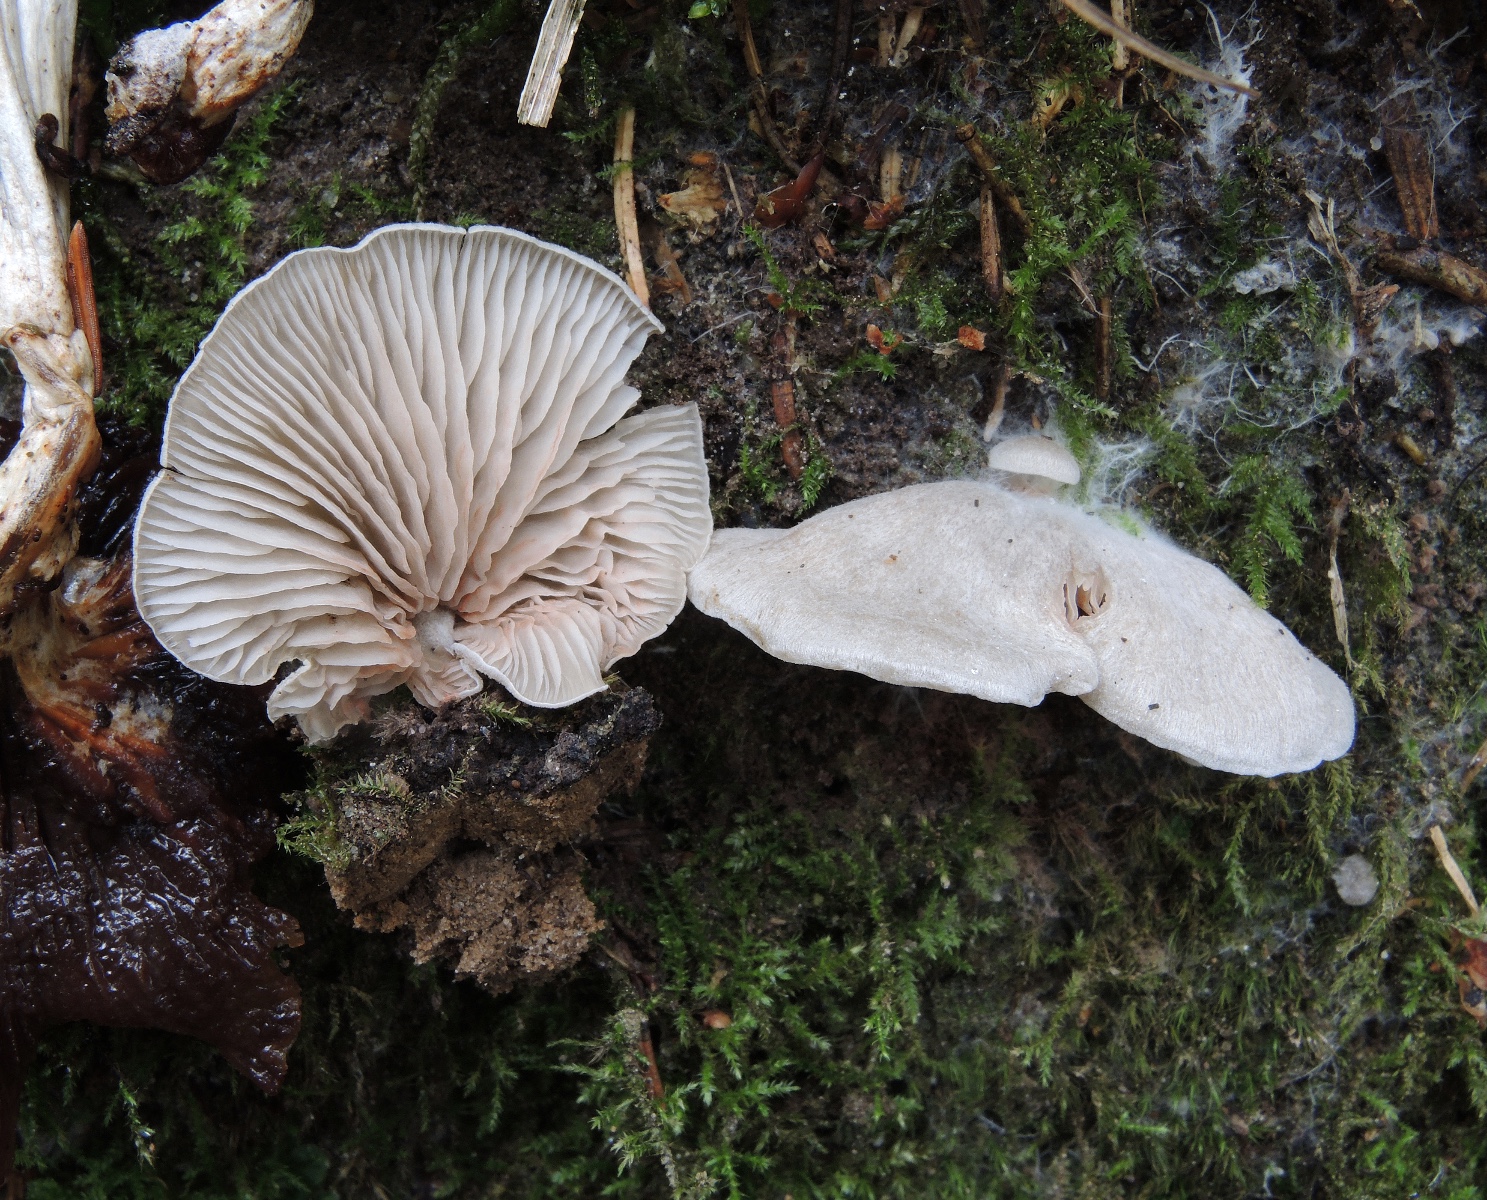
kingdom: Fungi
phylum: Basidiomycota
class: Agaricomycetes
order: Agaricales
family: Entolomataceae
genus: Entoloma
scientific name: Entoloma byssisedum
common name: Oysterling pinkgill
